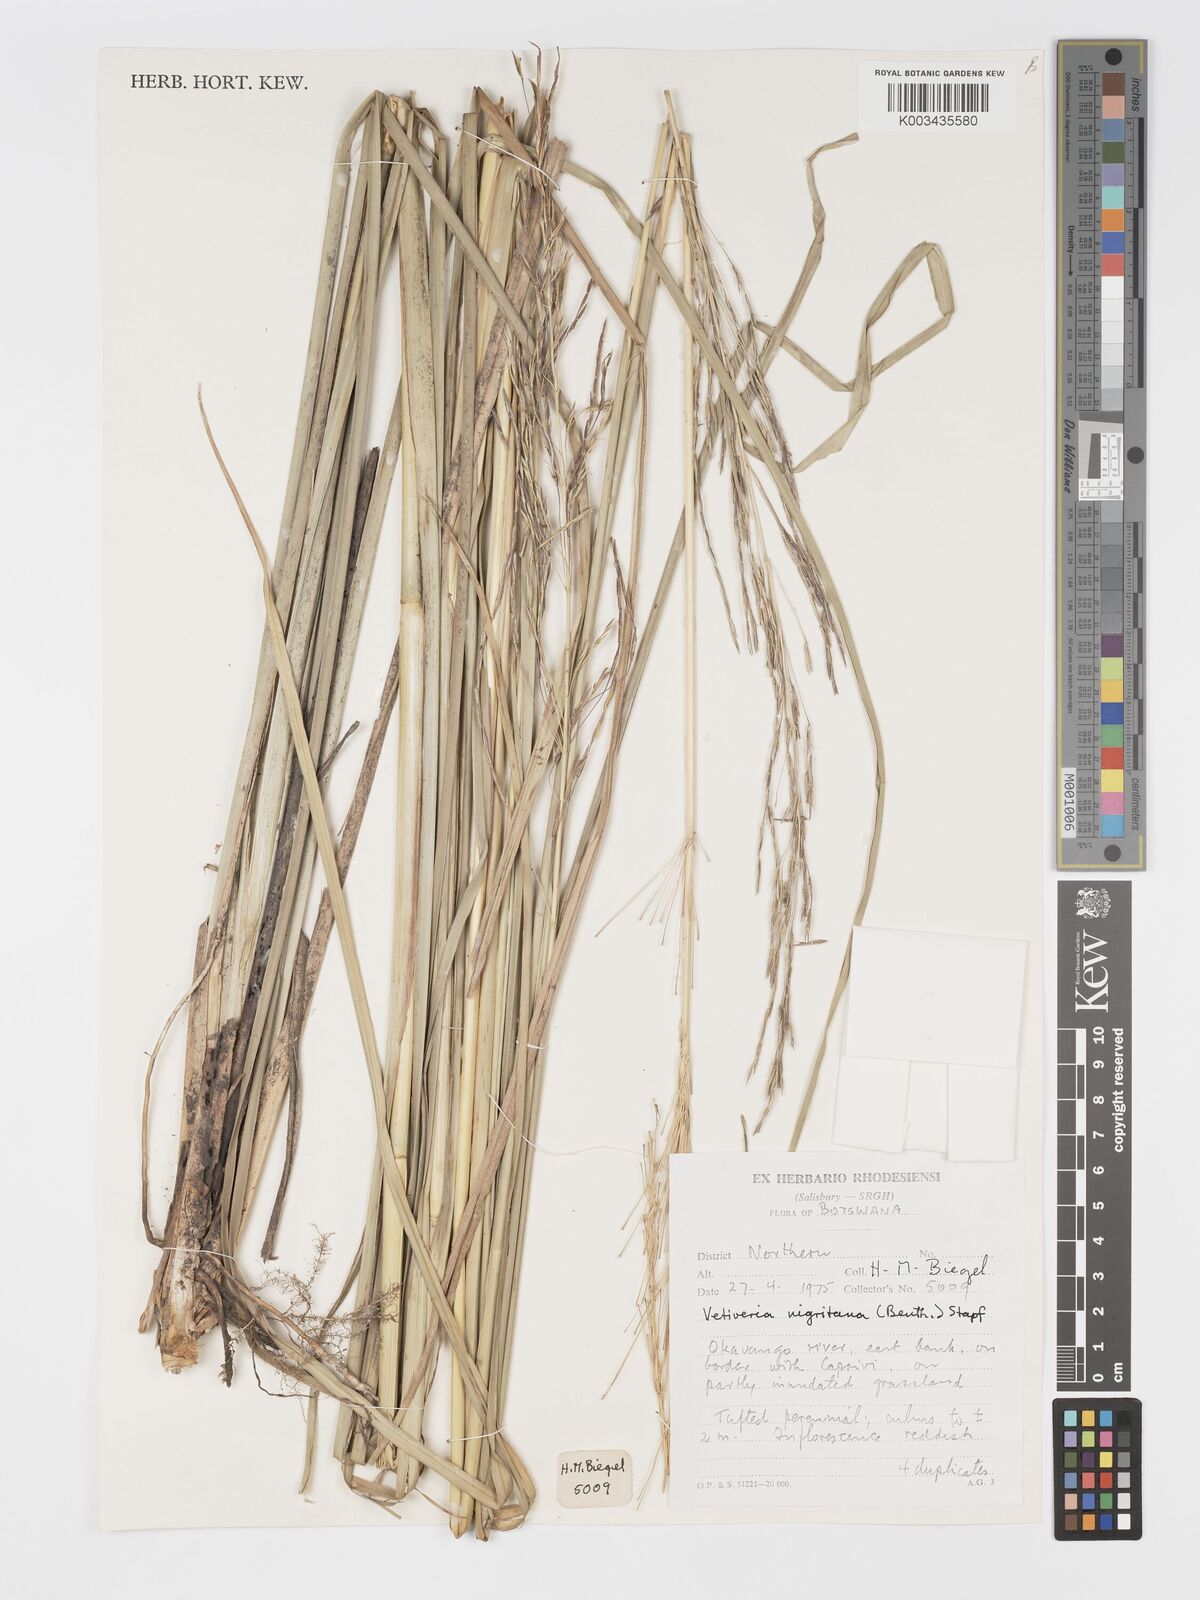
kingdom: Plantae
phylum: Tracheophyta
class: Liliopsida
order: Poales
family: Poaceae
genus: Chrysopogon
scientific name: Chrysopogon nigritanus
